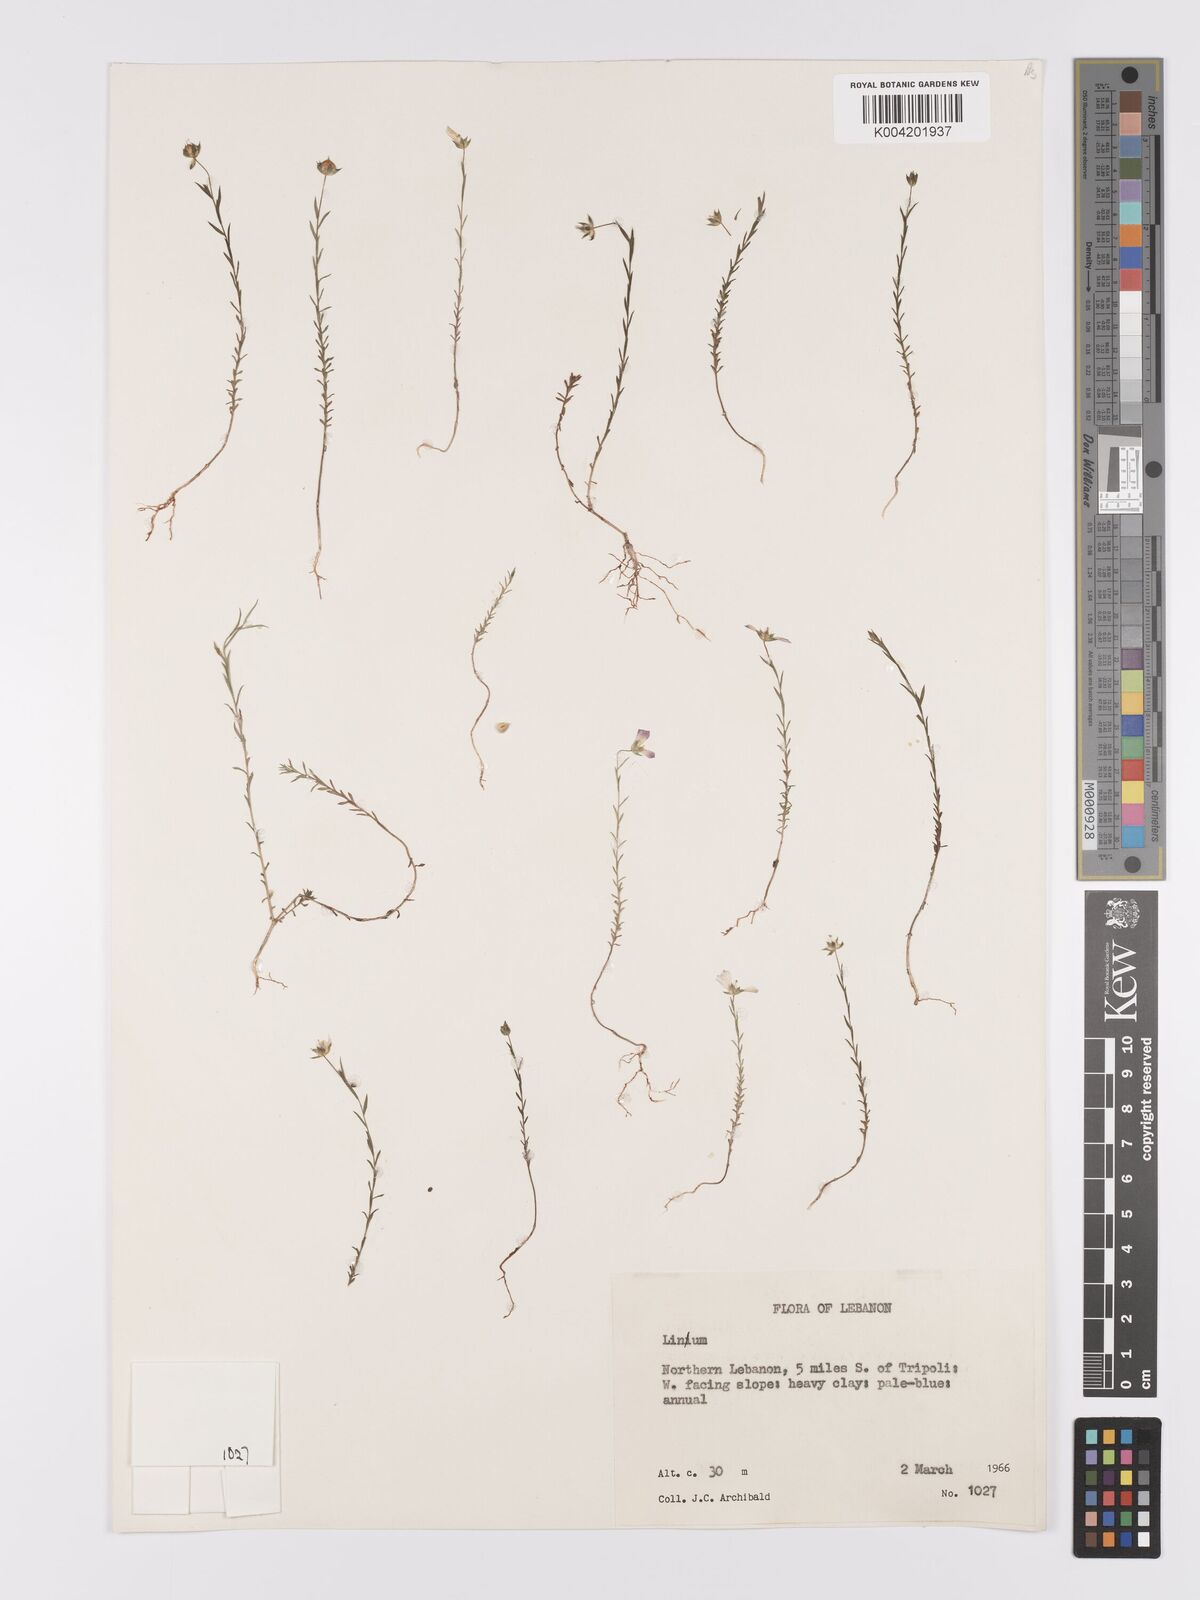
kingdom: Plantae
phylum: Tracheophyta
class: Magnoliopsida
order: Malpighiales
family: Linaceae
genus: Linum
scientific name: Linum
